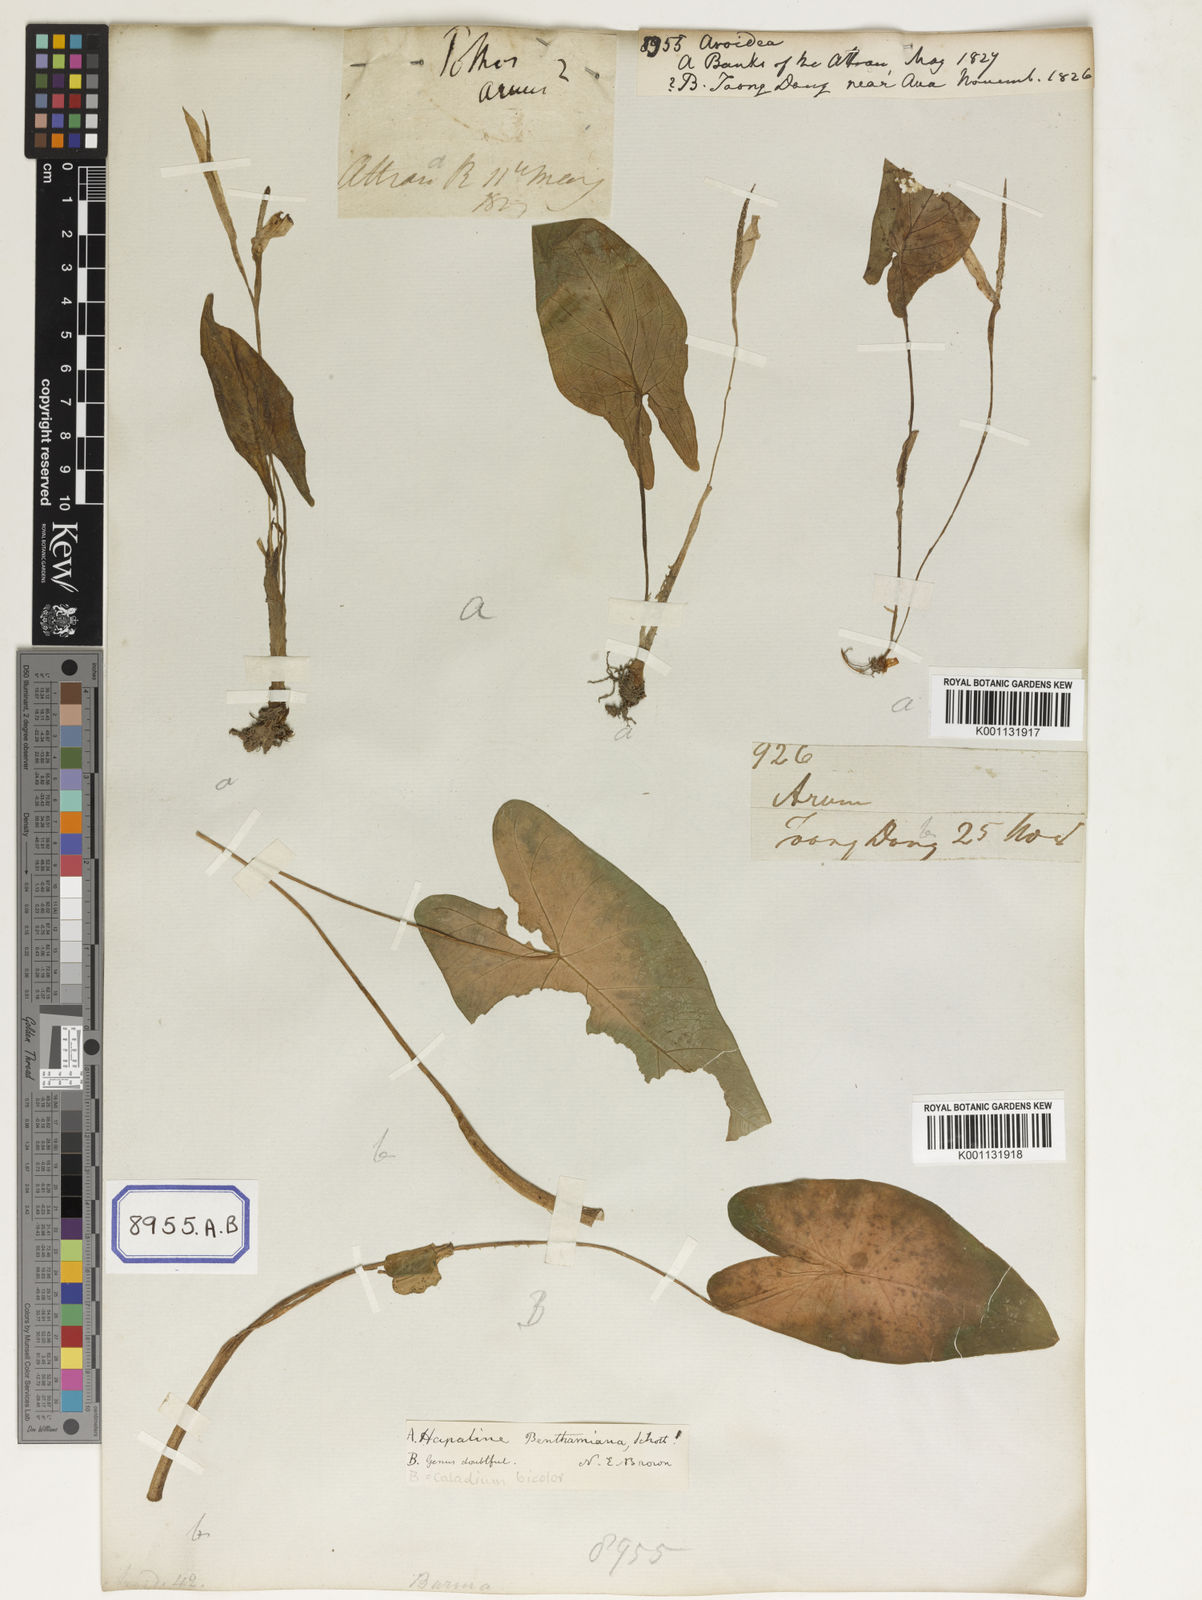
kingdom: Plantae
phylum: Tracheophyta
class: Liliopsida
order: Alismatales
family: Araceae
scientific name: Araceae
